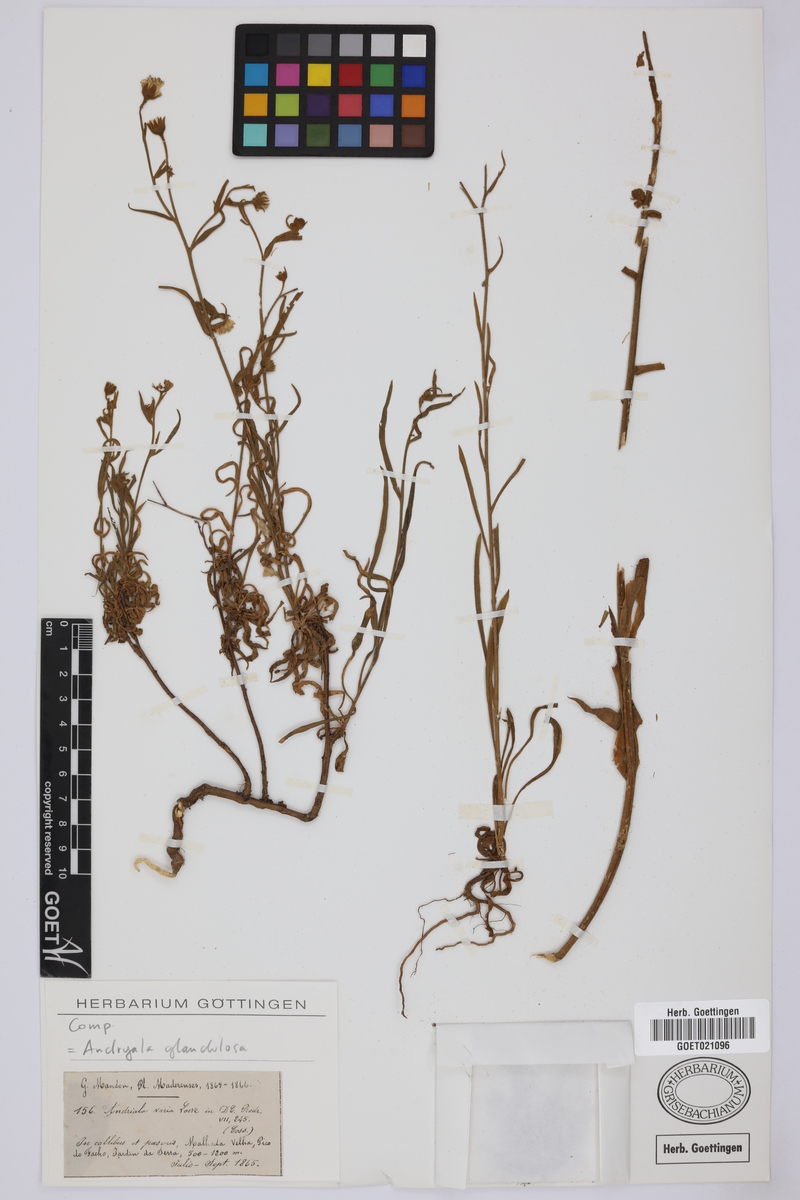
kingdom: Plantae
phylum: Tracheophyta
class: Magnoliopsida
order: Asterales
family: Asteraceae
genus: Andryala
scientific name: Andryala glandulosa
